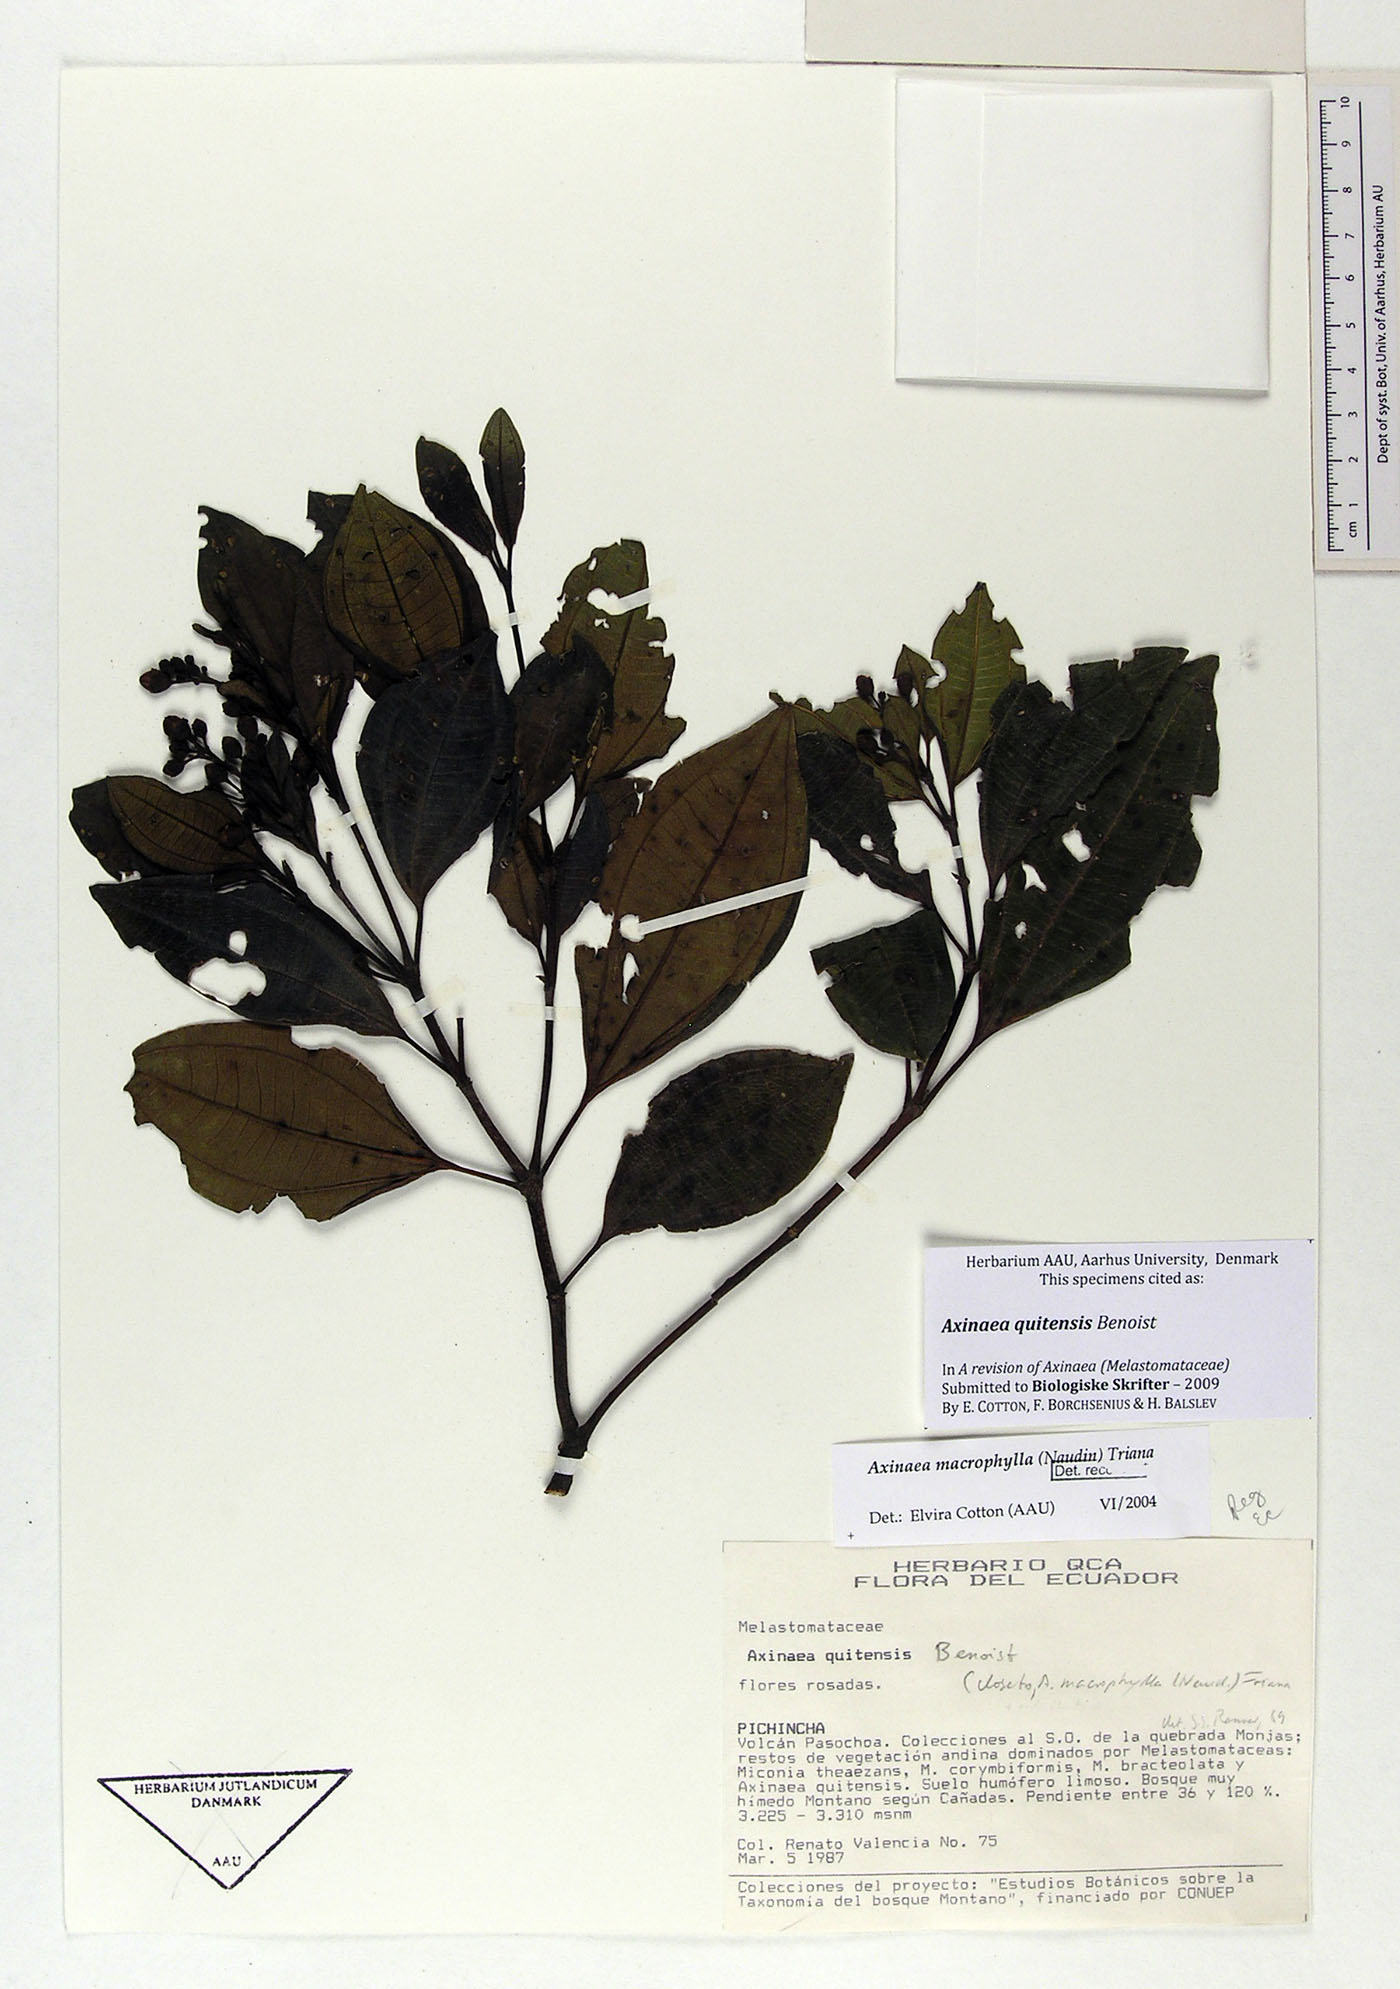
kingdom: Plantae
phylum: Tracheophyta
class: Magnoliopsida
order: Myrtales
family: Melastomataceae
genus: Axinaea
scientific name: Axinaea quitensis
